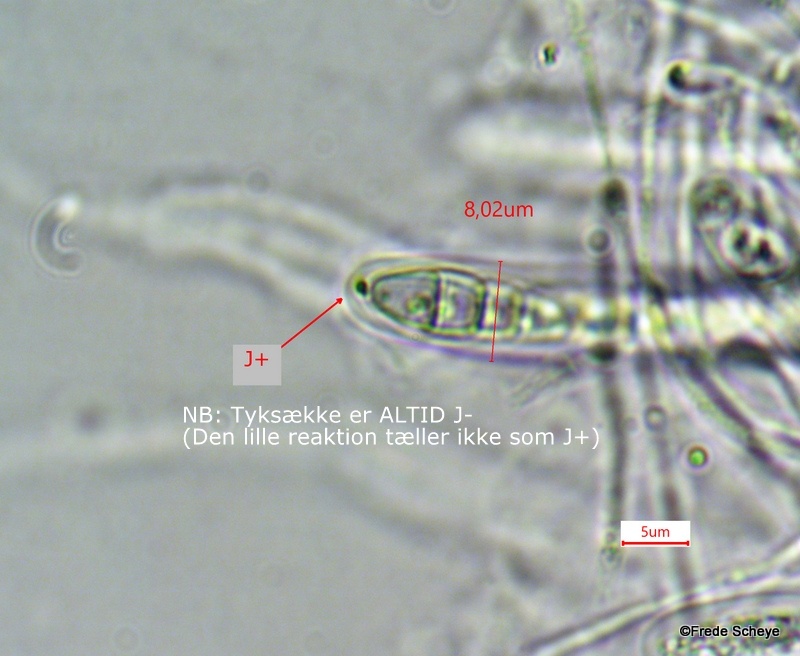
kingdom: Fungi
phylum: Ascomycota
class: Dothideomycetes
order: Pleosporales
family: Melanommataceae
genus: Melanomma
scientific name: Melanomma pulvis-pyrius
